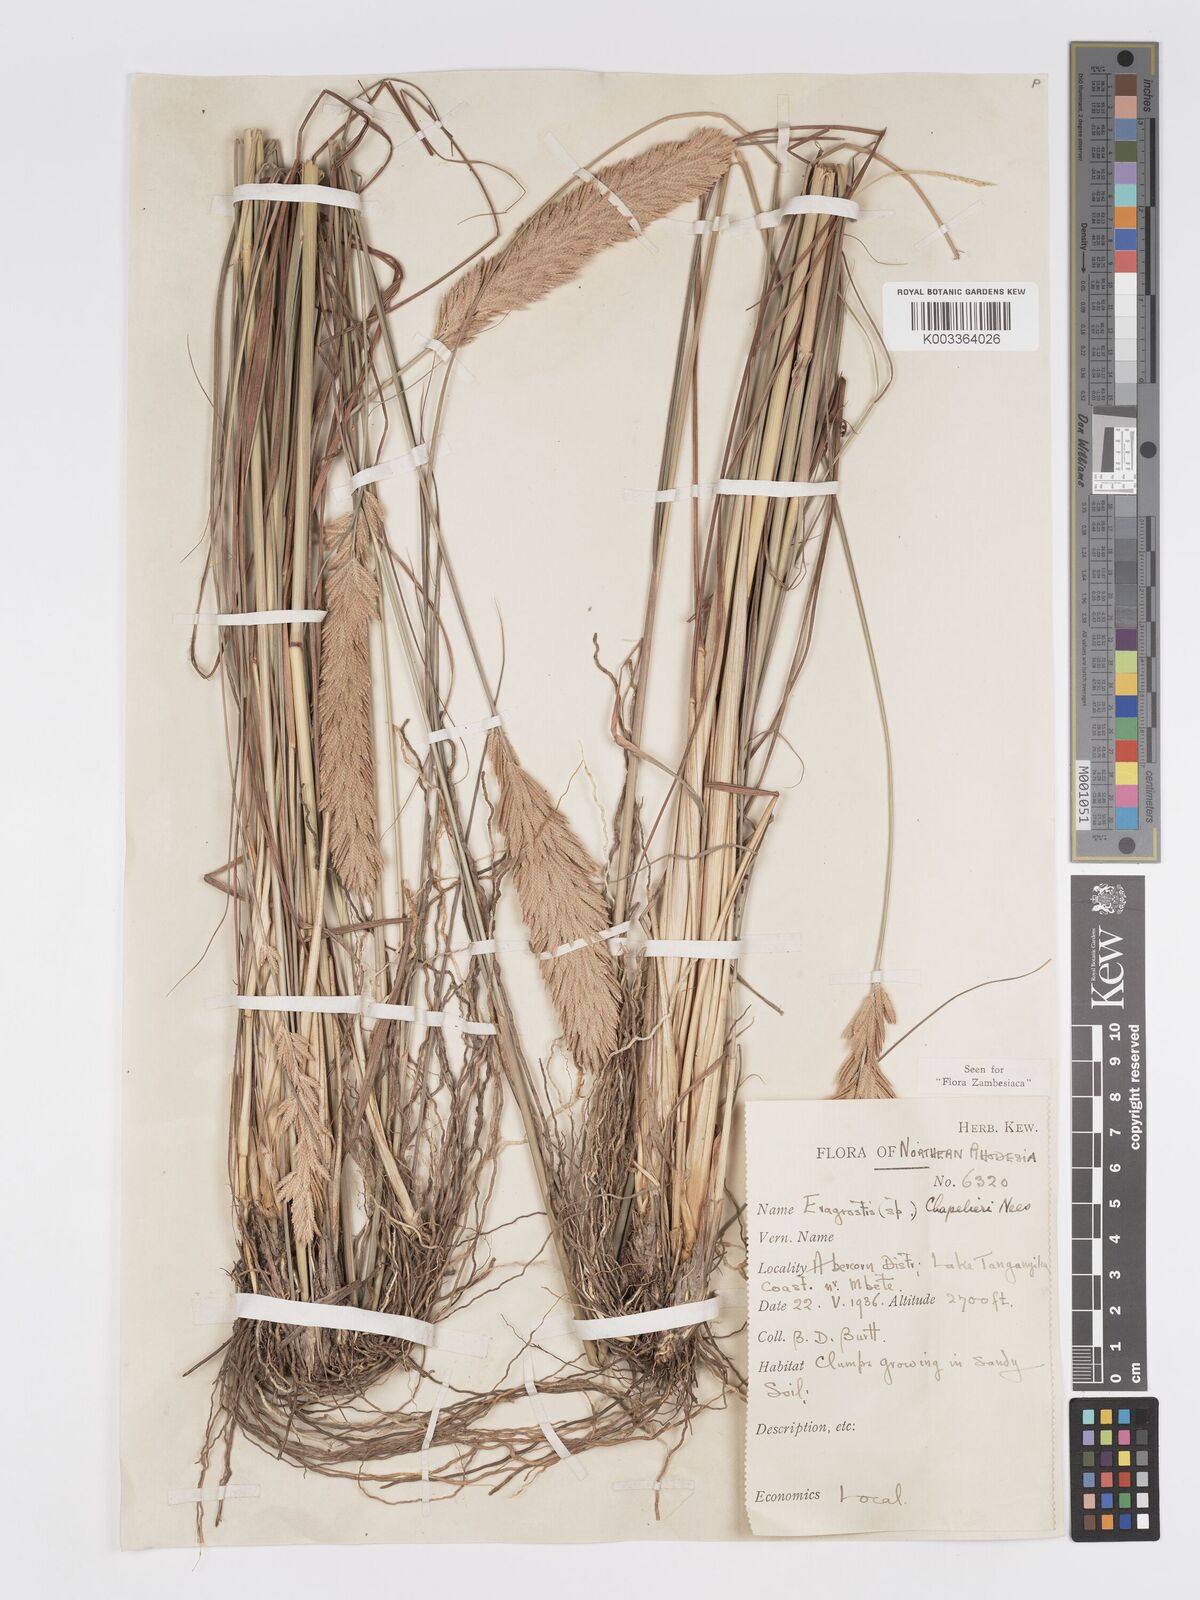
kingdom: Plantae
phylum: Tracheophyta
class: Liliopsida
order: Poales
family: Poaceae
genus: Eragrostis
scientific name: Eragrostis chapelieri
